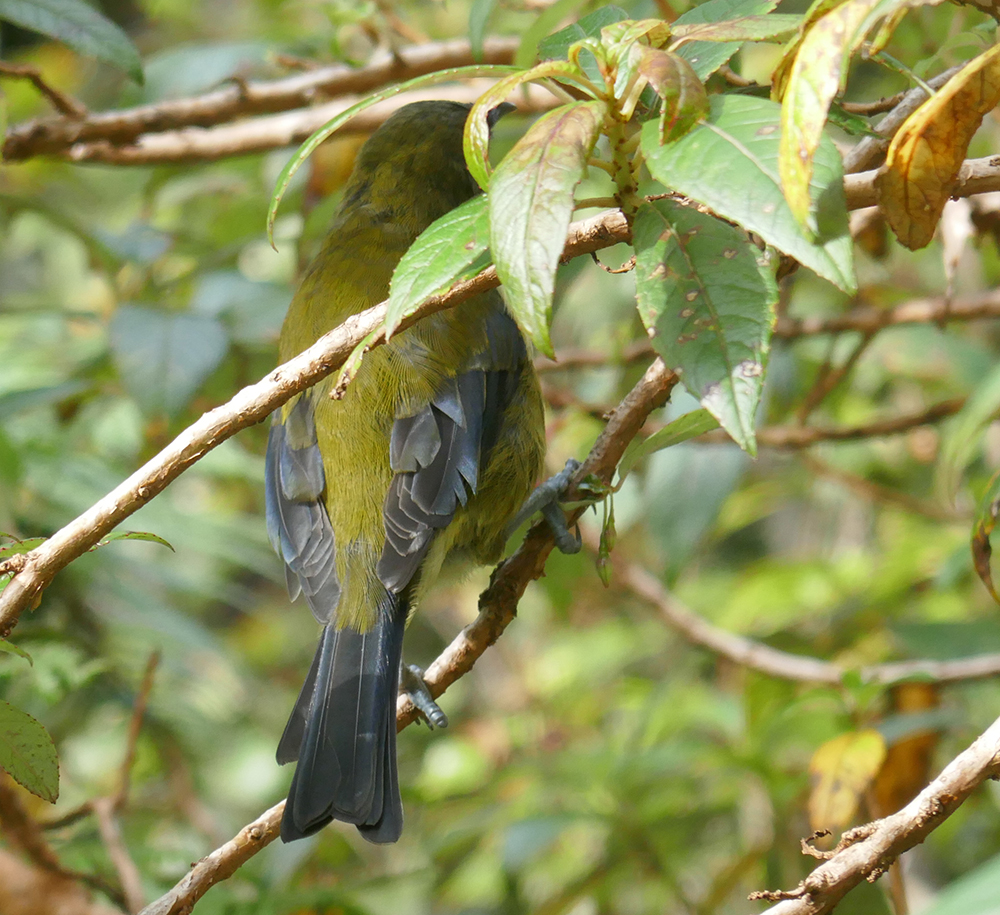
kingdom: Animalia
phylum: Chordata
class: Aves
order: Passeriformes
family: Meliphagidae
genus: Anthornis
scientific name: Anthornis melanura
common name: New zealand bellbird
